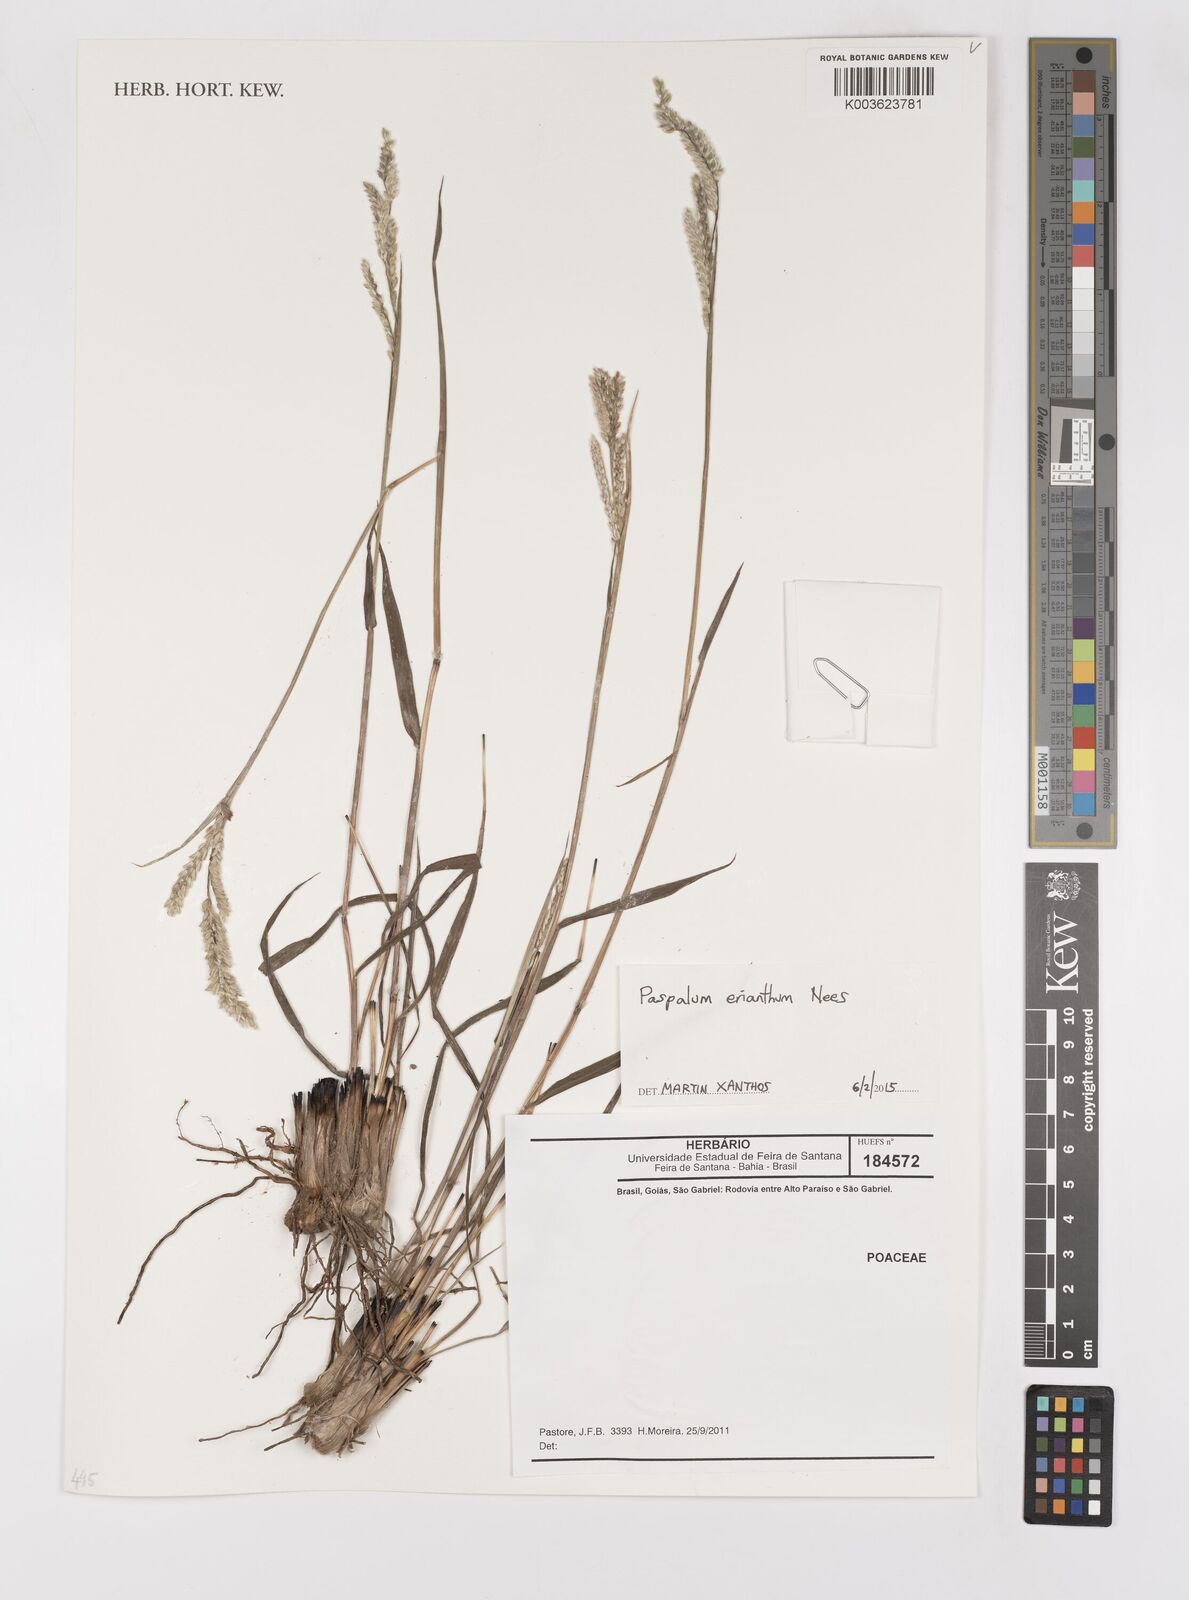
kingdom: Plantae
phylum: Tracheophyta
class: Liliopsida
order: Poales
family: Poaceae
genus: Paspalum
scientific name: Paspalum erianthum
